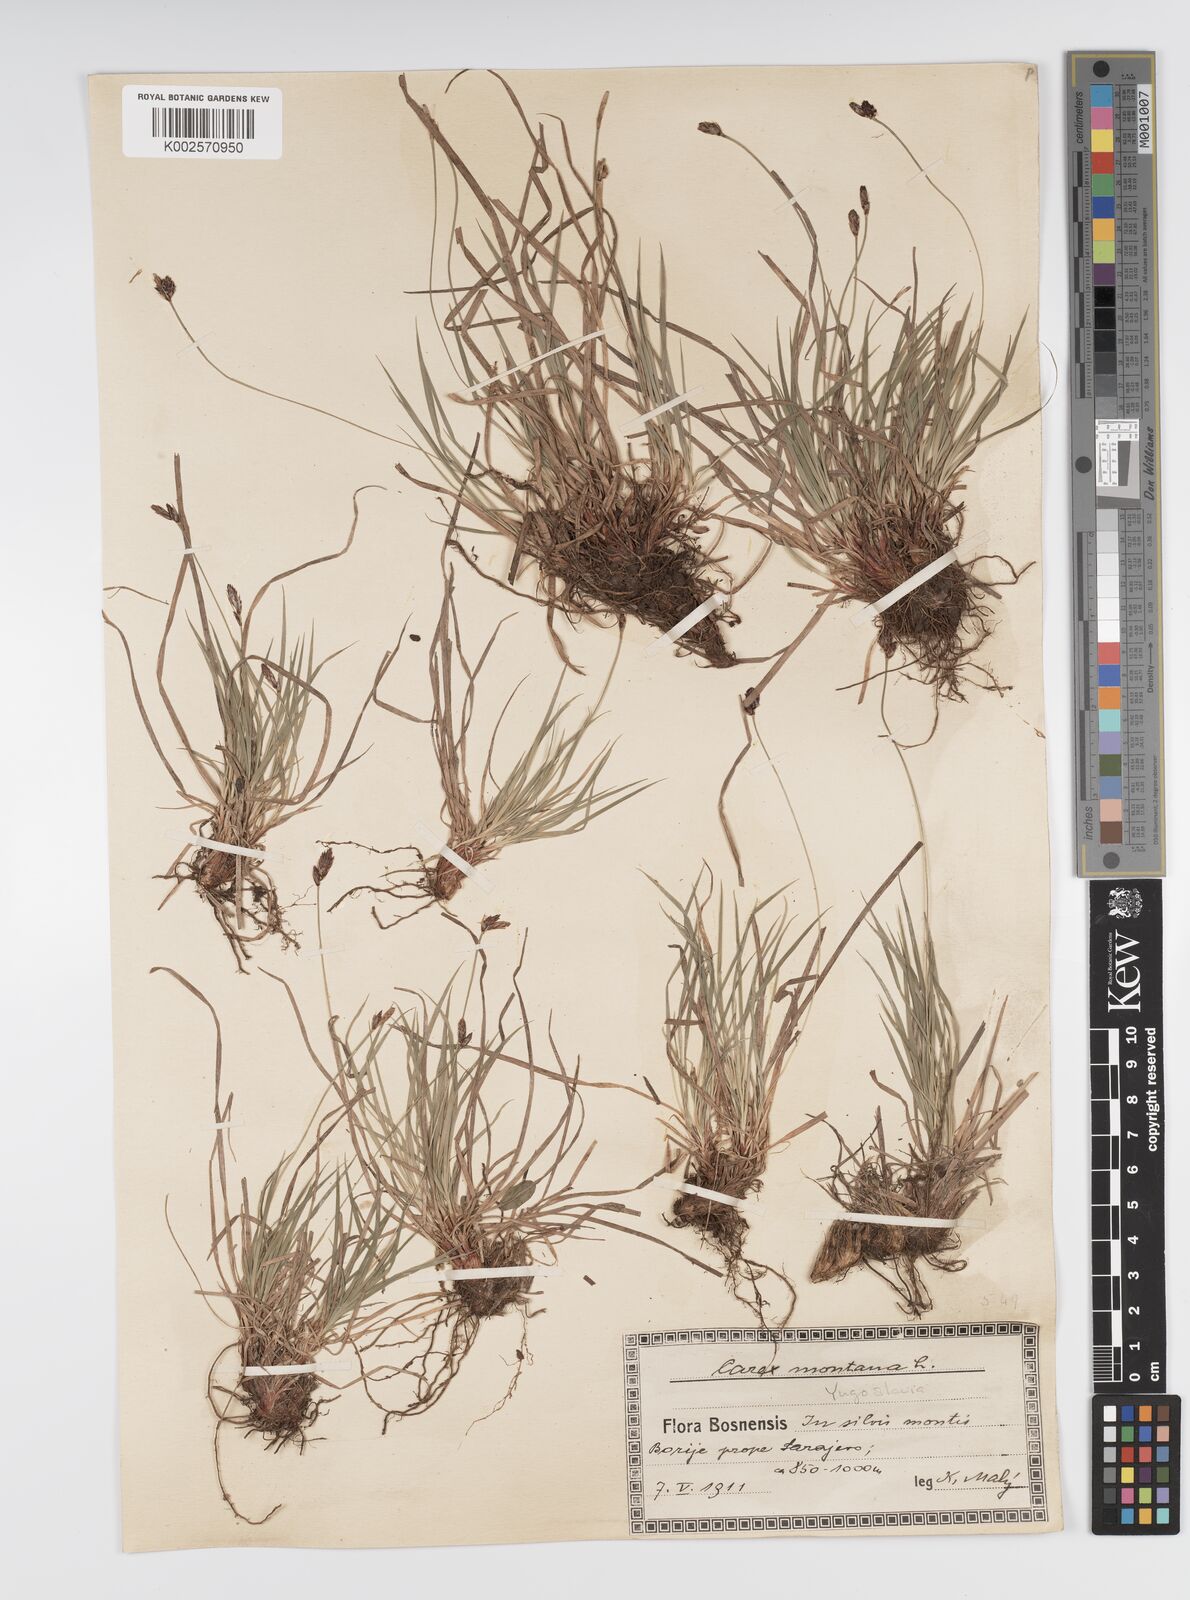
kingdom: Plantae
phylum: Tracheophyta
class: Liliopsida
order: Poales
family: Cyperaceae
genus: Carex
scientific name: Carex montana
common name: Soft-leaved sedge
